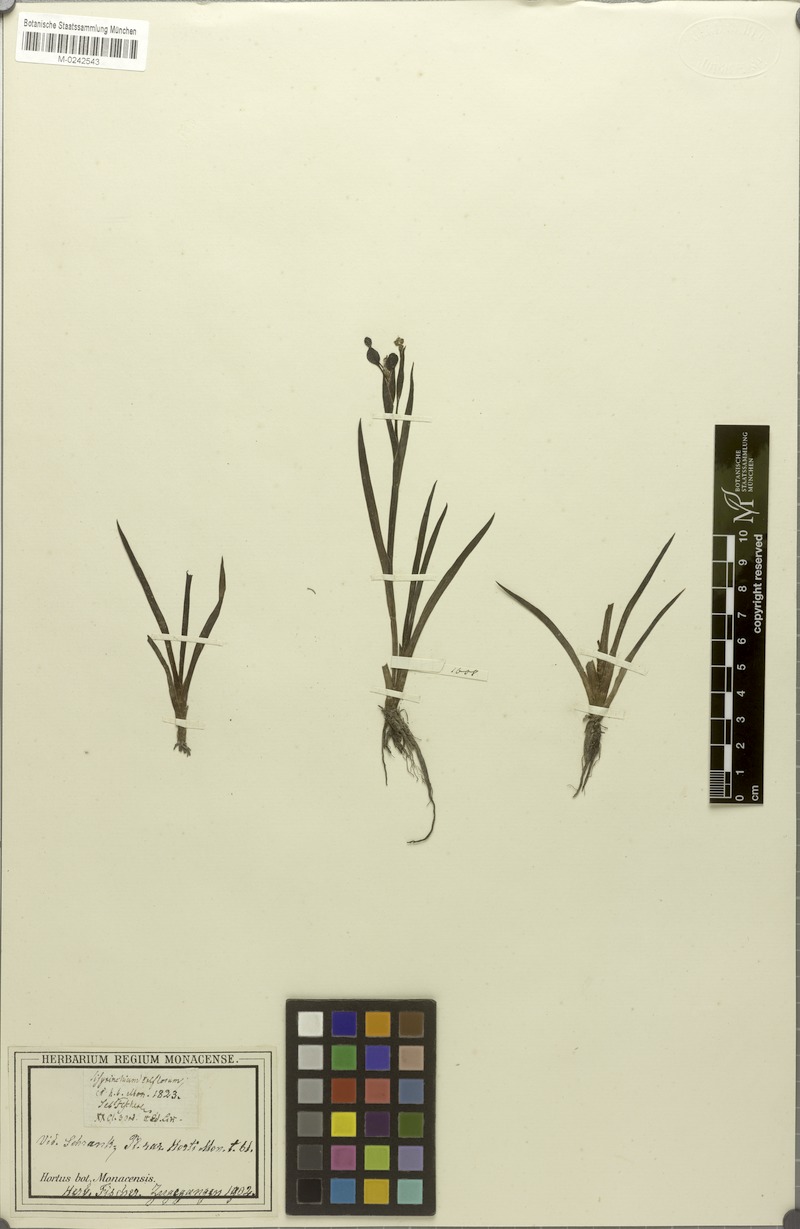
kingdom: Plantae
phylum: Tracheophyta
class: Liliopsida
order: Asparagales
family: Iridaceae
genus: Sisyrinchium
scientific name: Sisyrinchium triflorum
